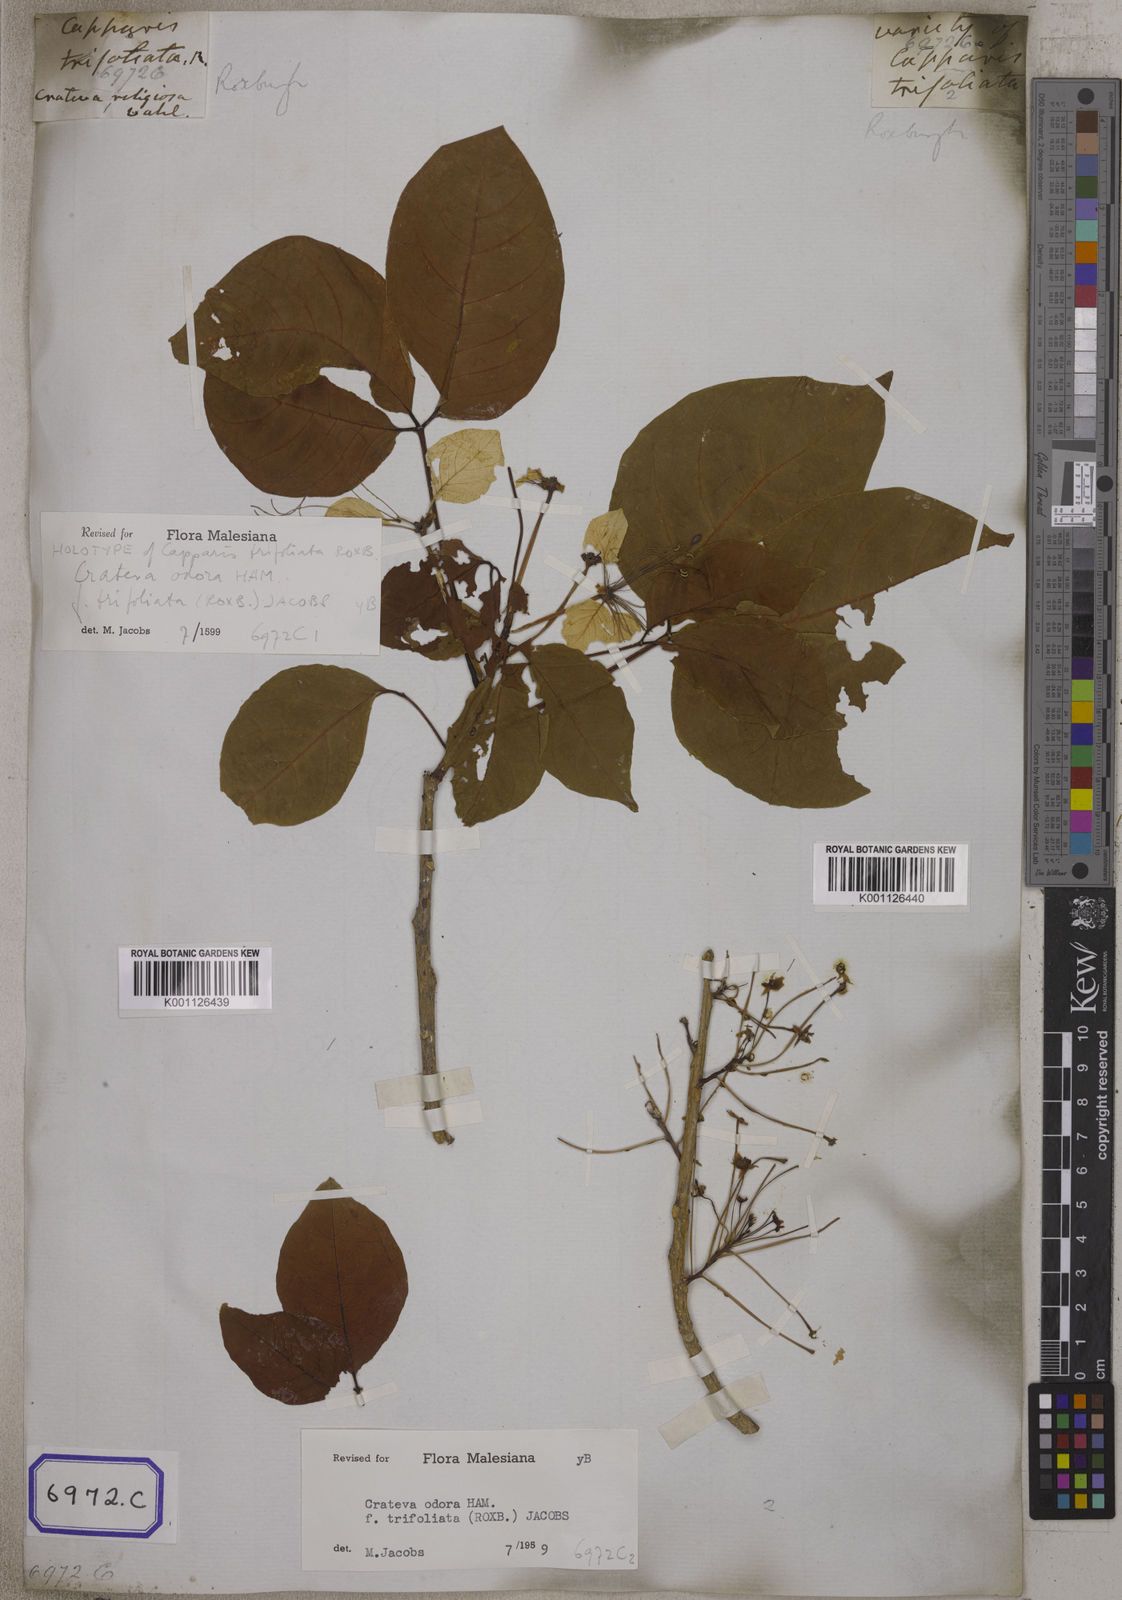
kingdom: Plantae
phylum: Tracheophyta
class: Magnoliopsida
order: Brassicales
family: Capparaceae
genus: Crateva
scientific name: Crateva religiosa
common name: March dalur
